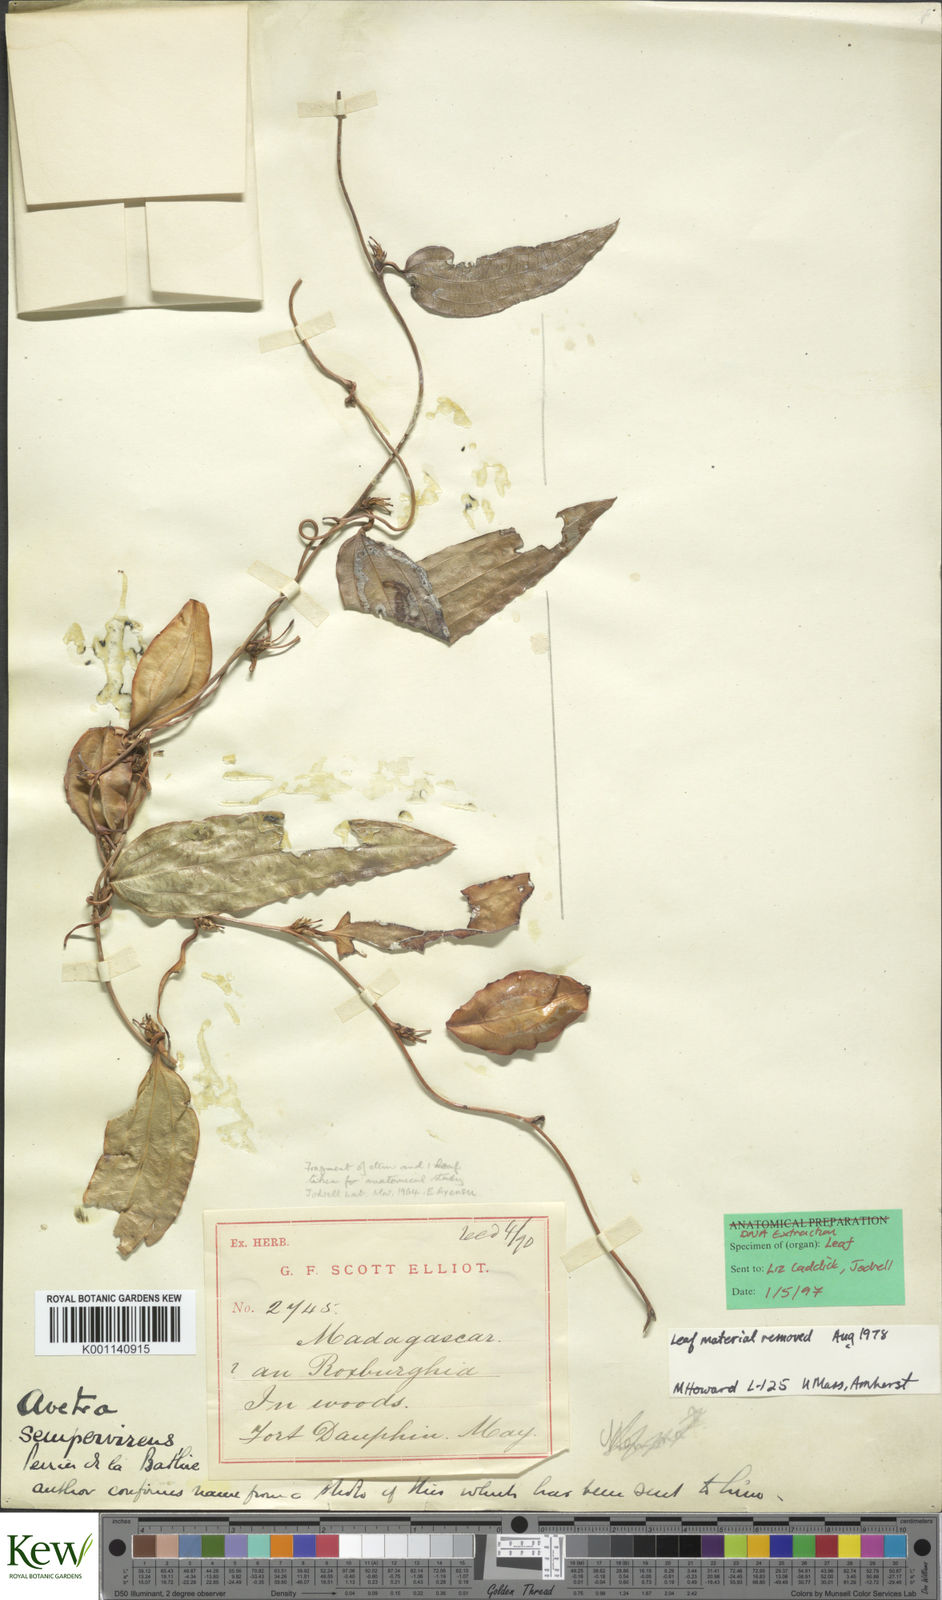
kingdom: Plantae
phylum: Tracheophyta
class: Liliopsida
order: Dioscoreales
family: Dioscoreaceae
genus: Trichopus
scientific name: Trichopus
